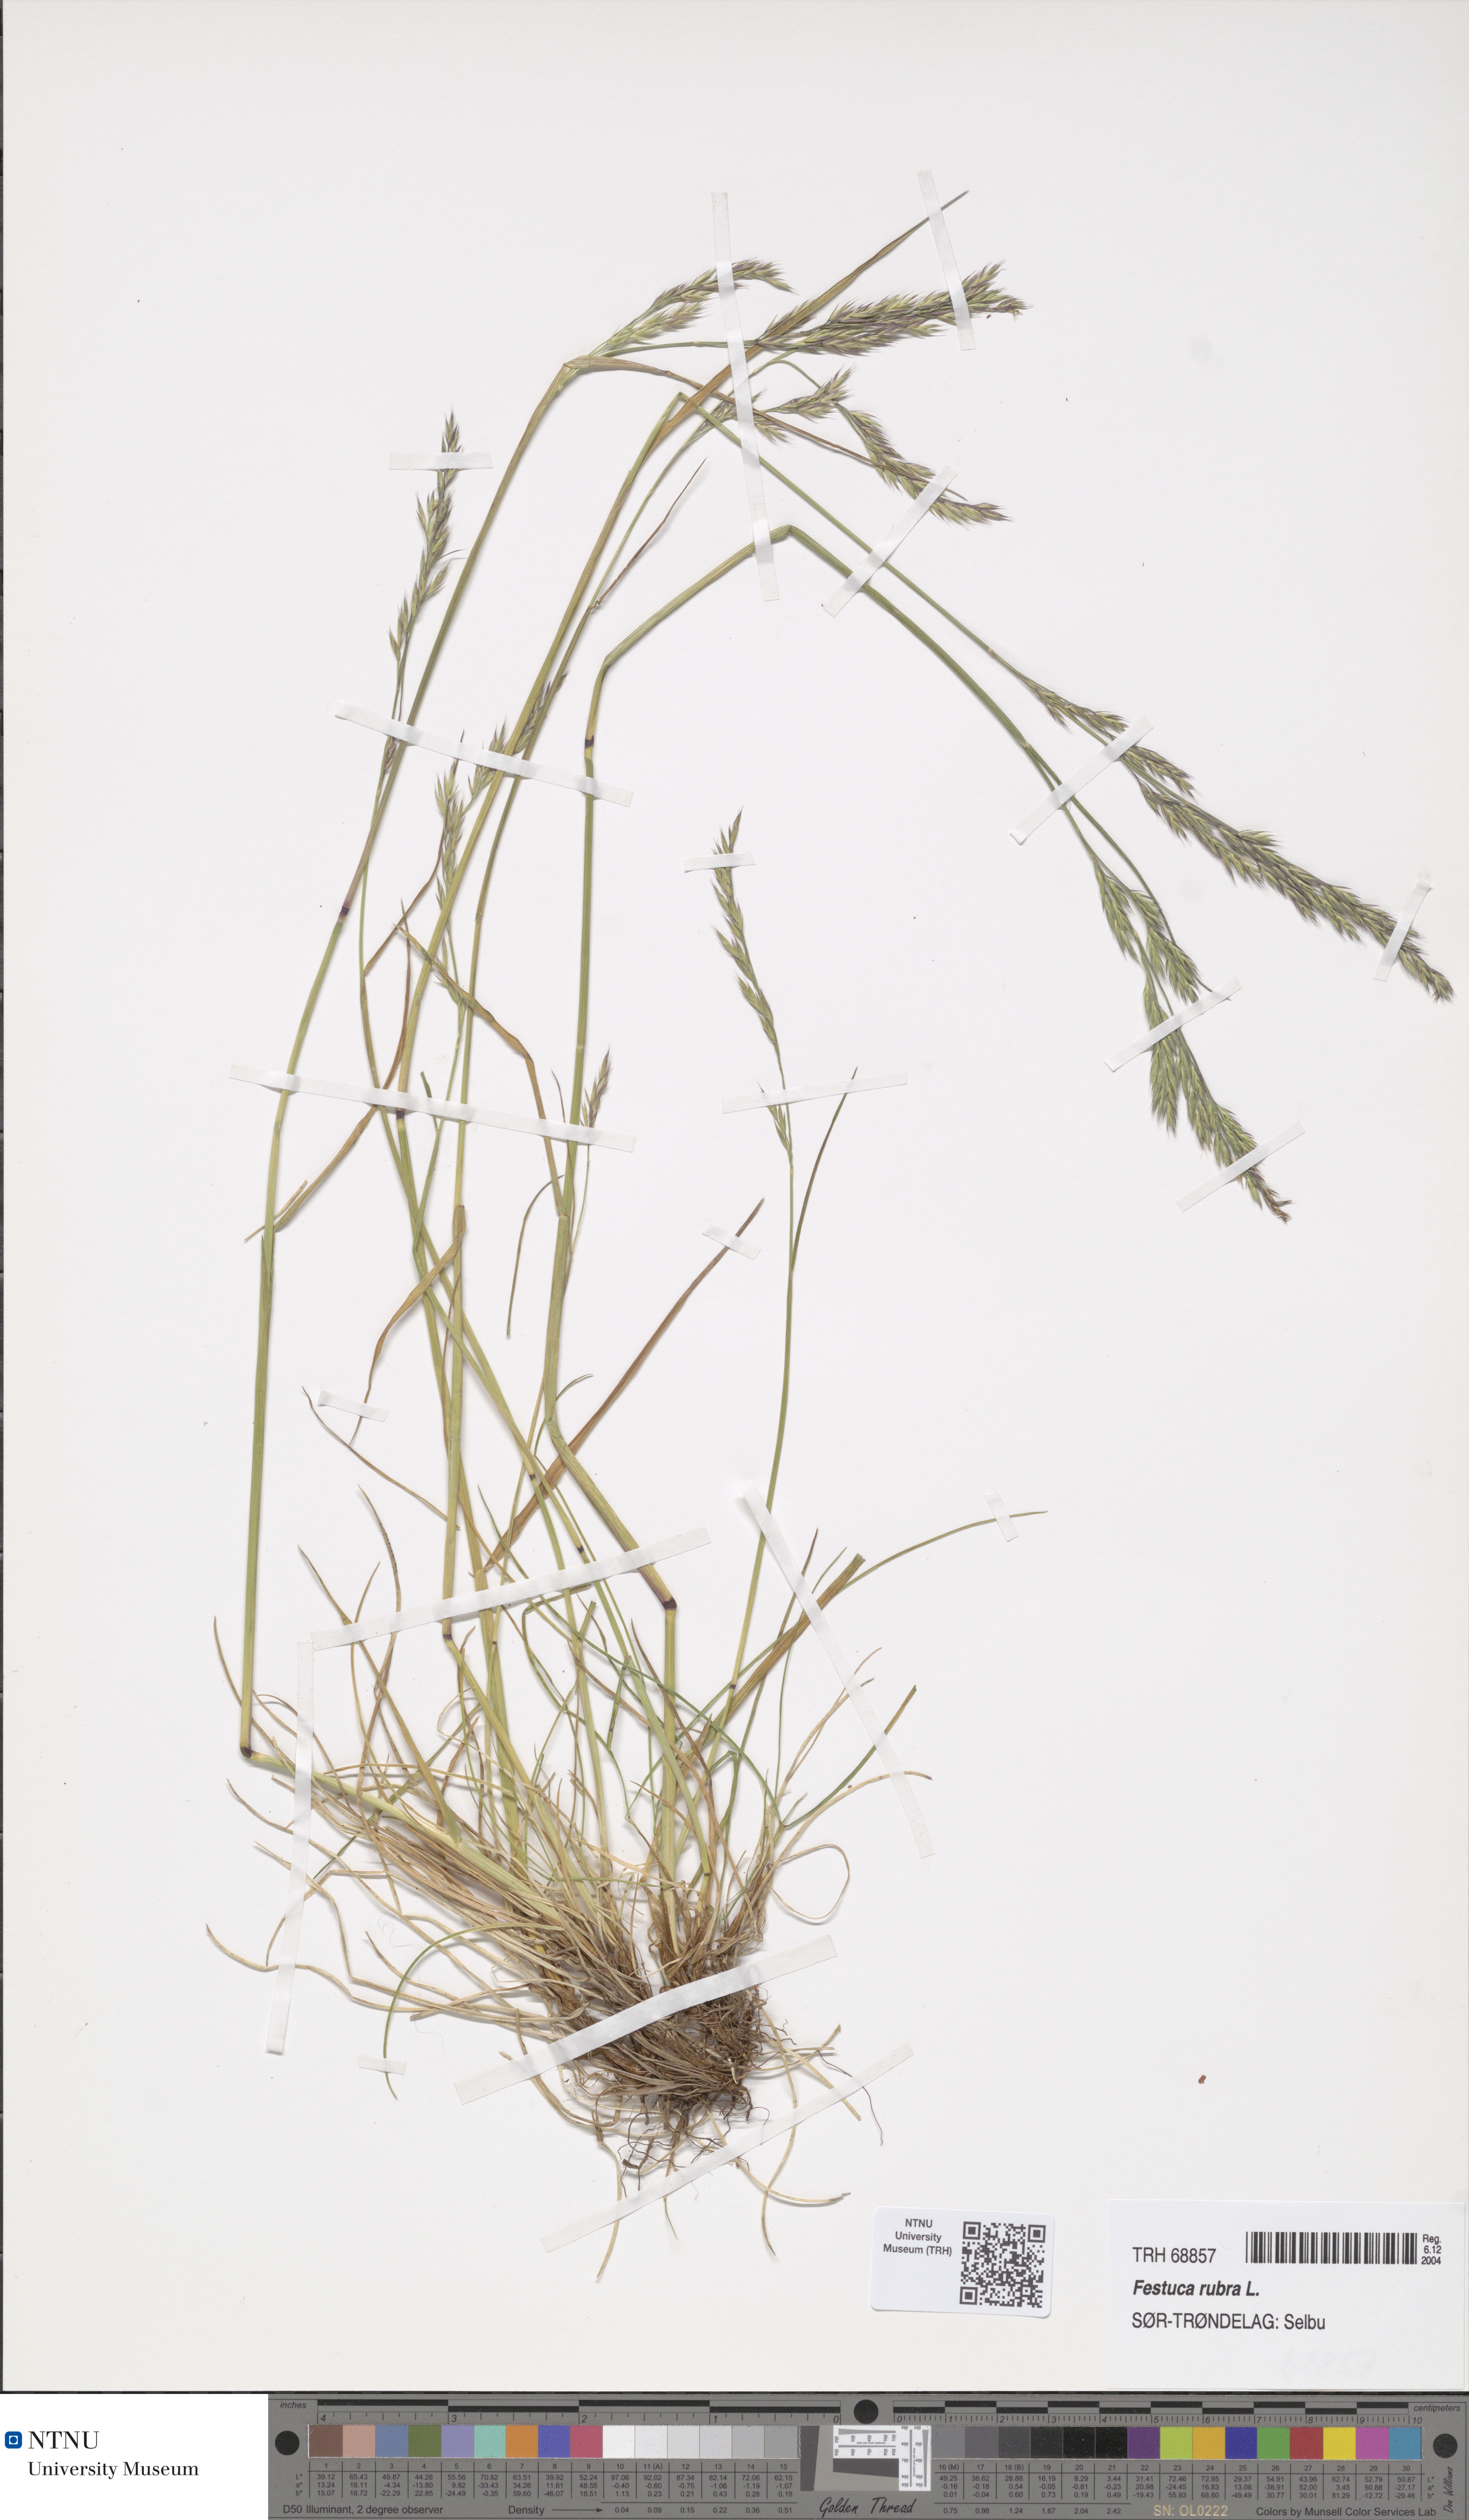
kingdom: Plantae
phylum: Tracheophyta
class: Liliopsida
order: Poales
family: Poaceae
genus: Festuca
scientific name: Festuca rubra
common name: Red fescue
